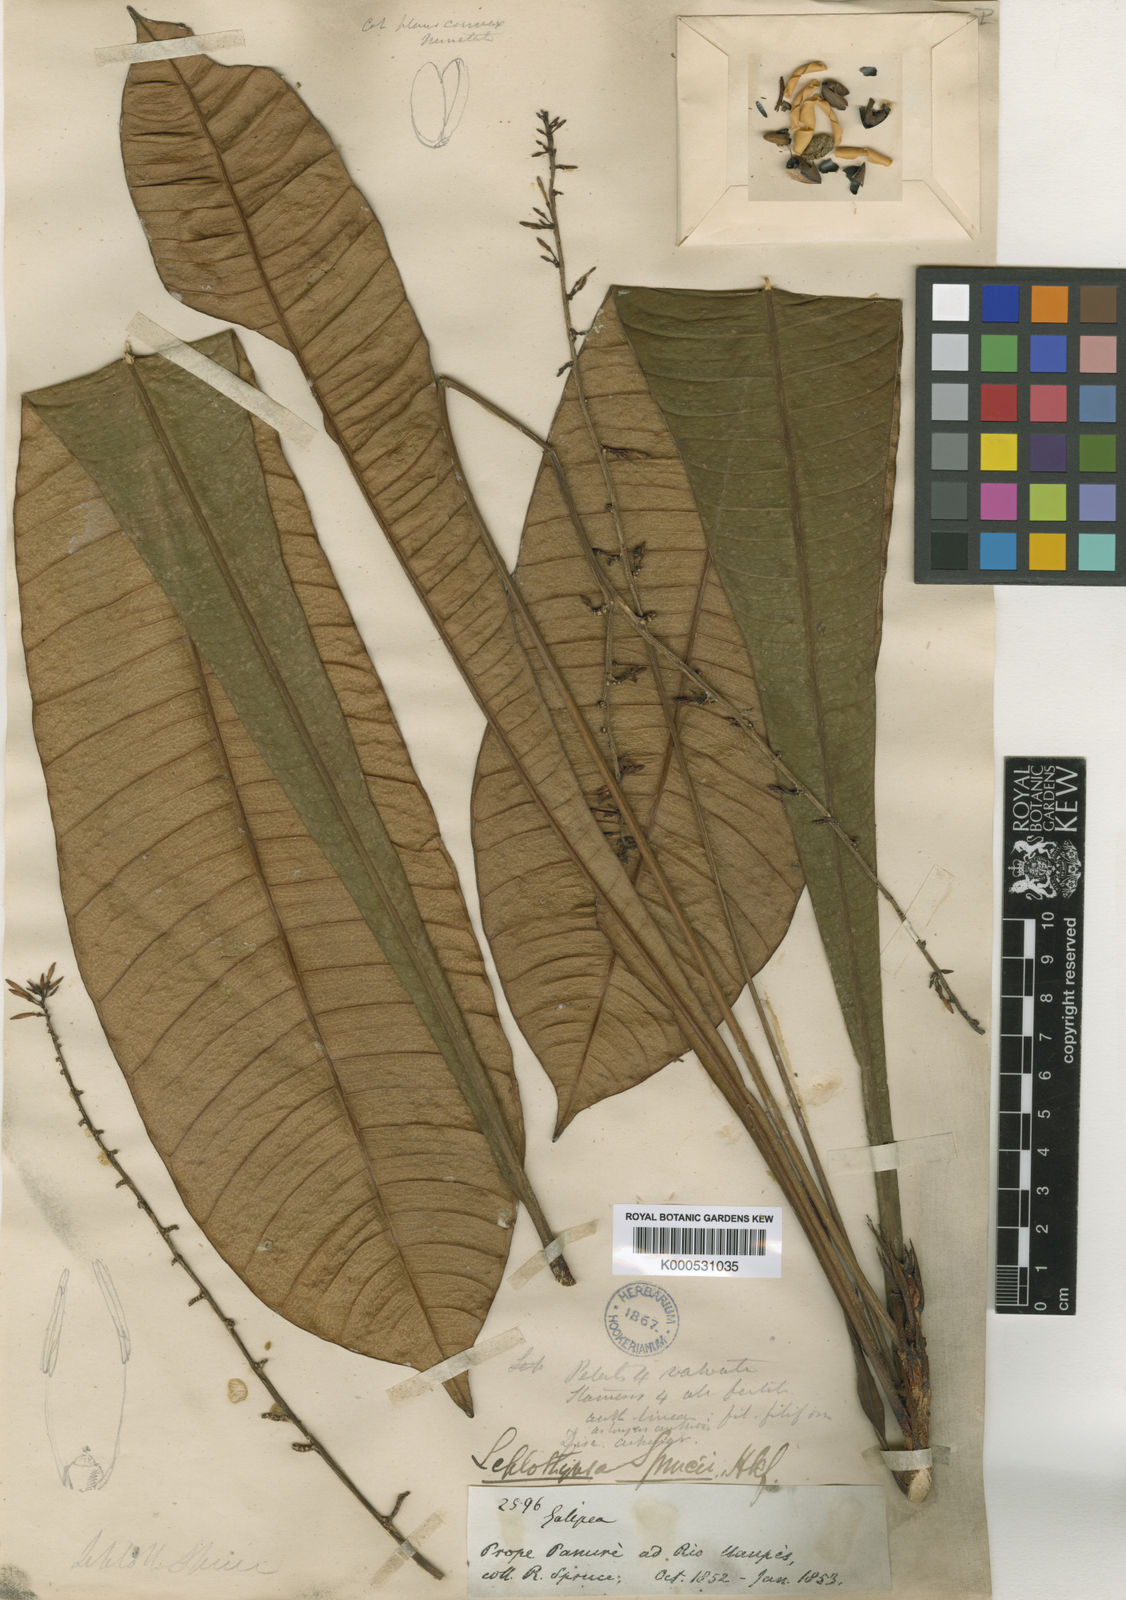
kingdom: Plantae
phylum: Tracheophyta
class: Magnoliopsida
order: Sapindales
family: Rutaceae
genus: Leptothyrsa
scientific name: Leptothyrsa sprucei
